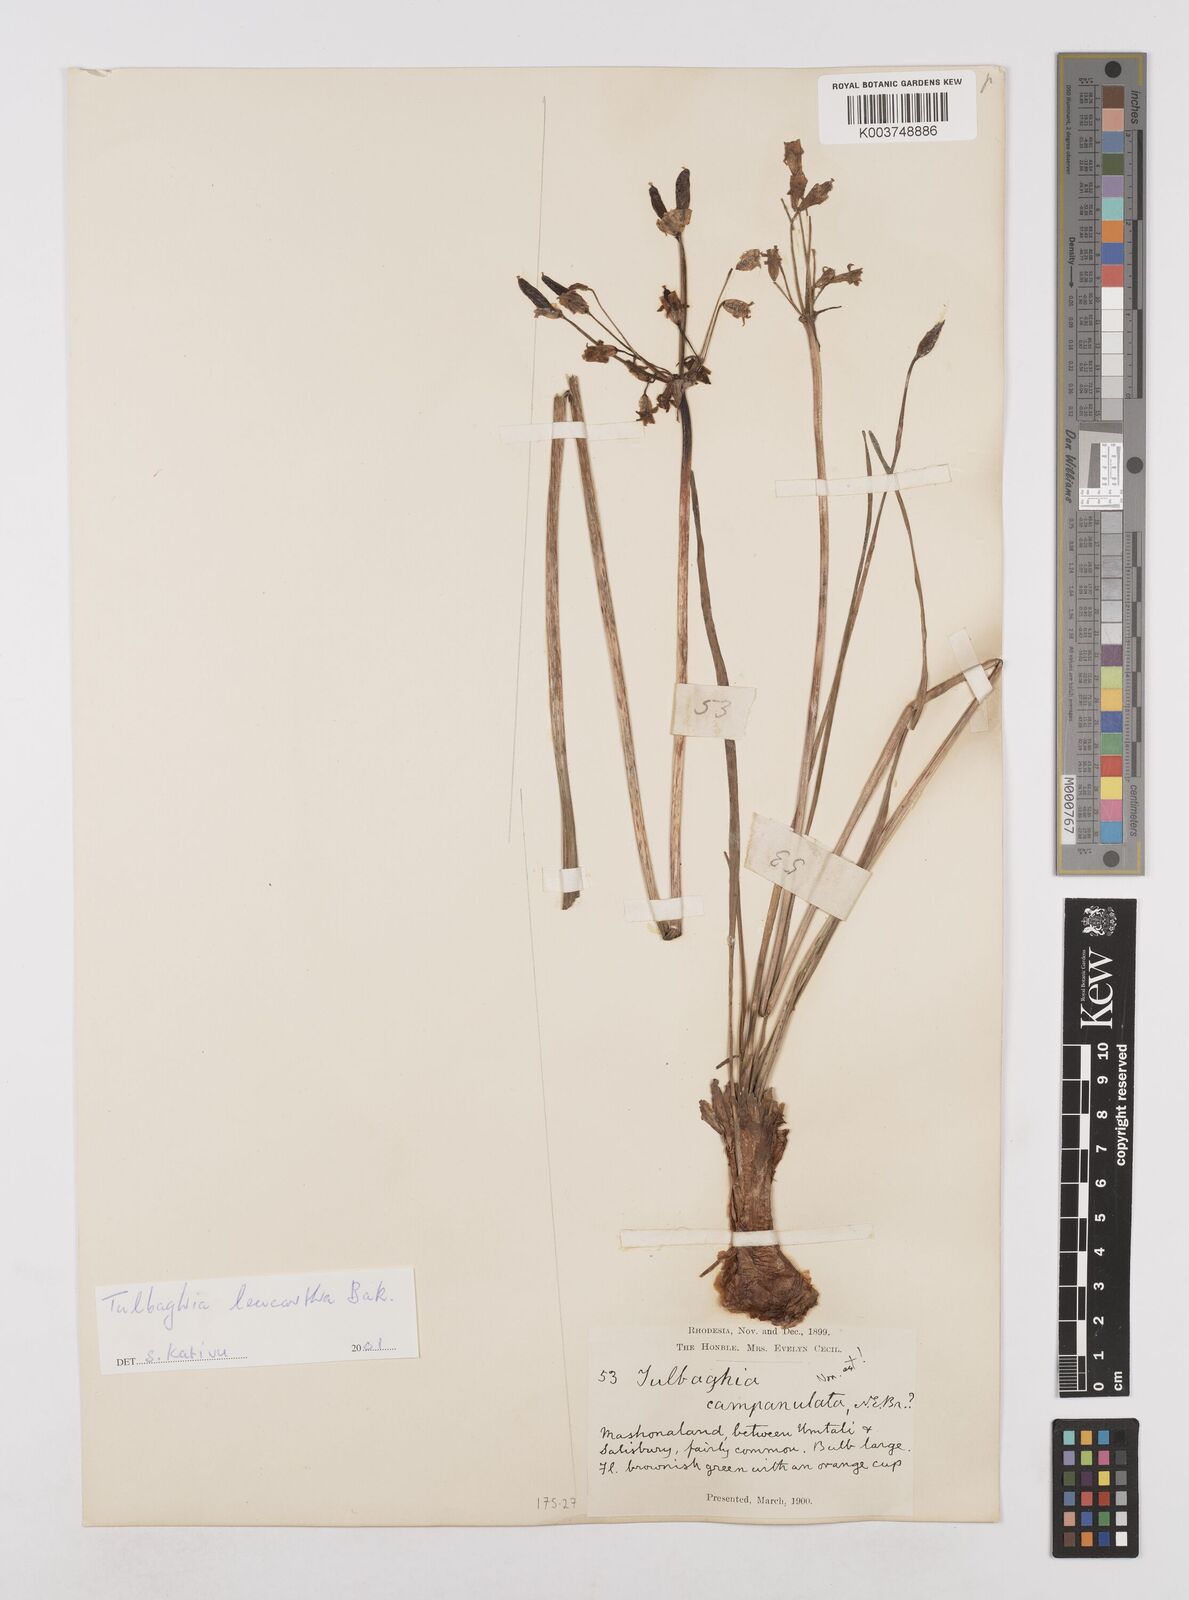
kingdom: Plantae
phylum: Tracheophyta
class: Liliopsida
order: Asparagales
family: Amaryllidaceae
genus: Tulbaghia
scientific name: Tulbaghia leucantha
